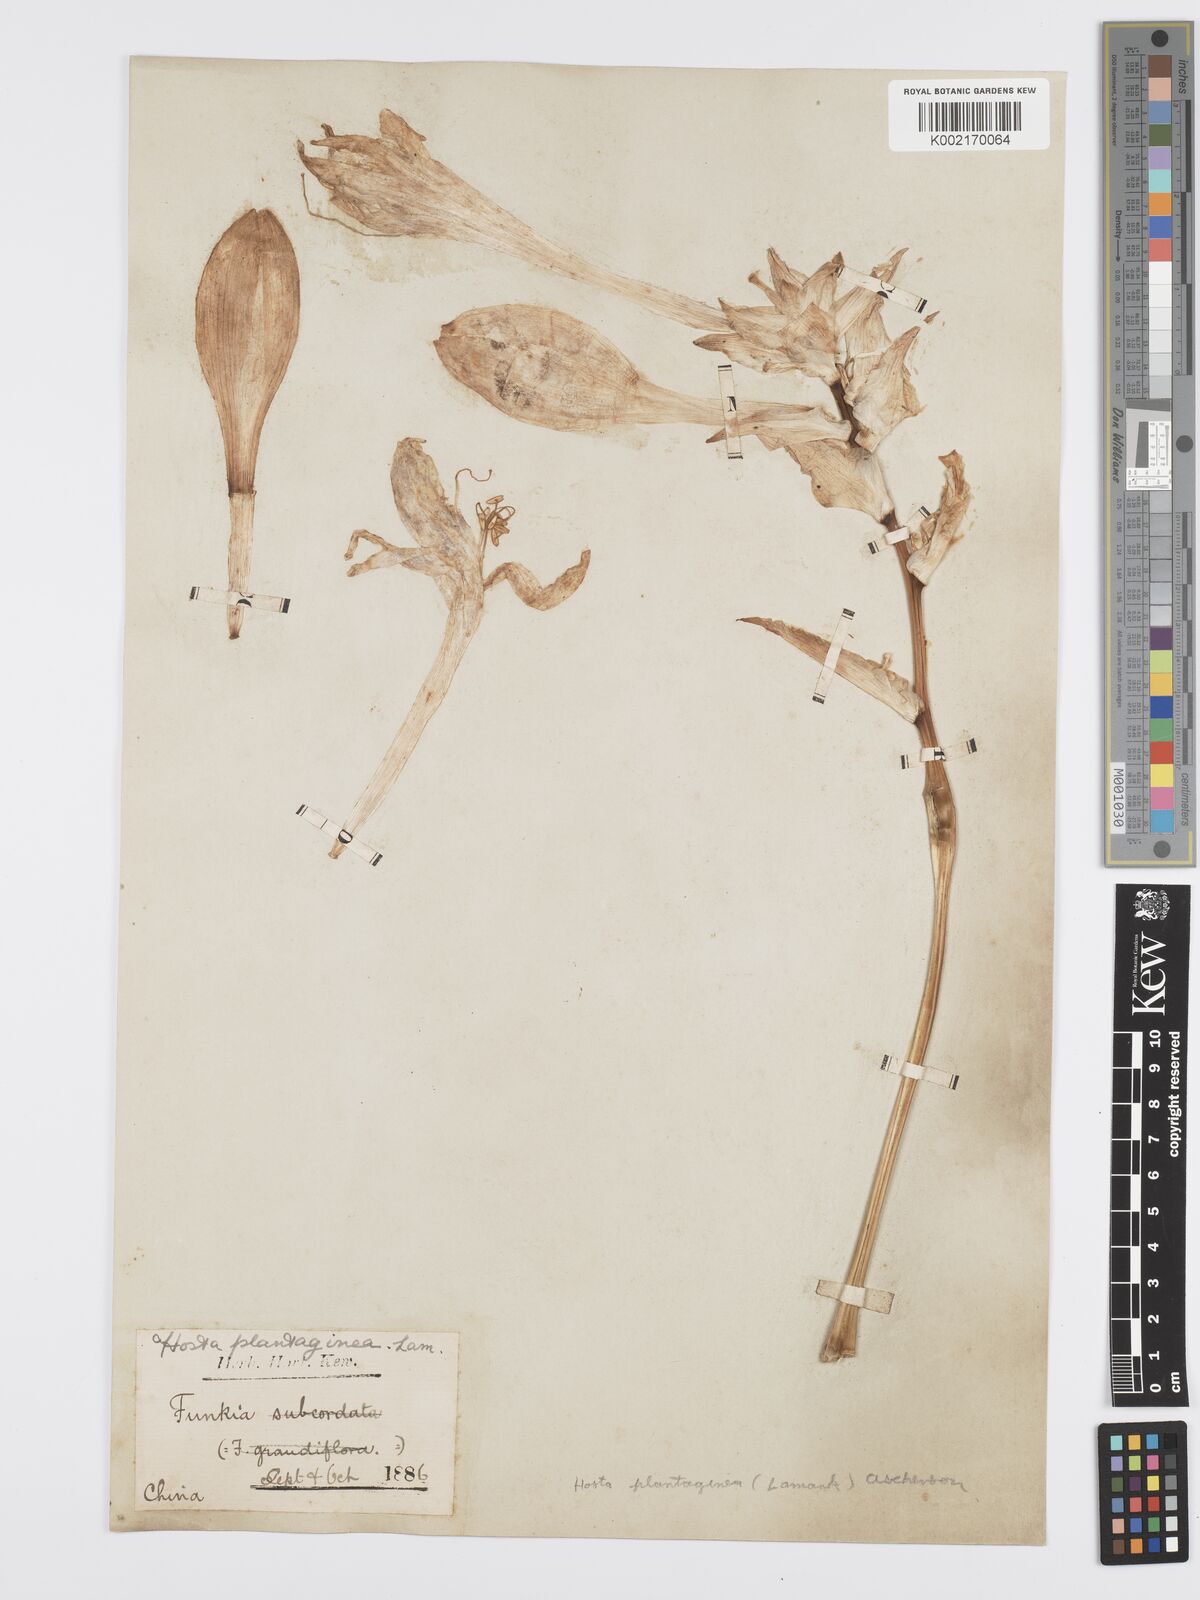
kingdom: Plantae
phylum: Tracheophyta
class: Liliopsida
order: Asparagales
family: Asparagaceae
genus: Hosta
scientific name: Hosta plantaginea
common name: August-lily
